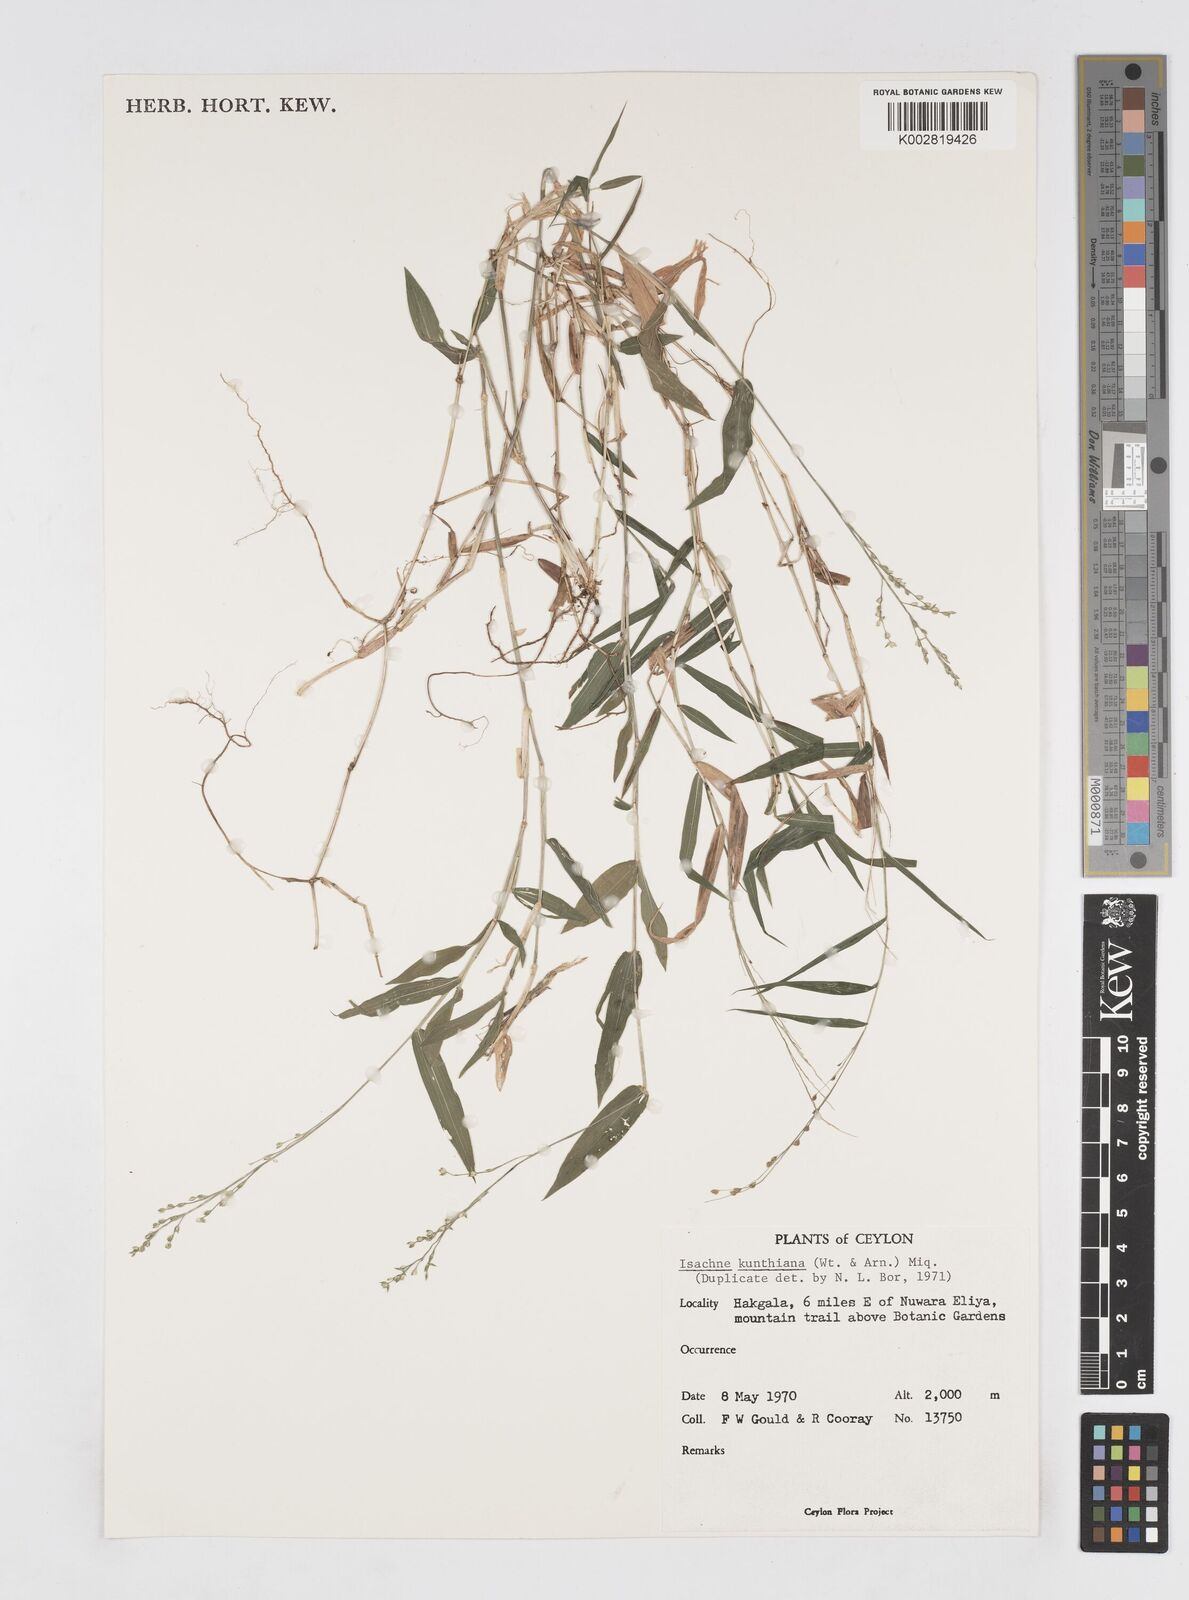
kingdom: Plantae
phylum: Tracheophyta
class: Liliopsida
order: Poales
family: Poaceae
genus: Isachne
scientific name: Isachne kunthiana
